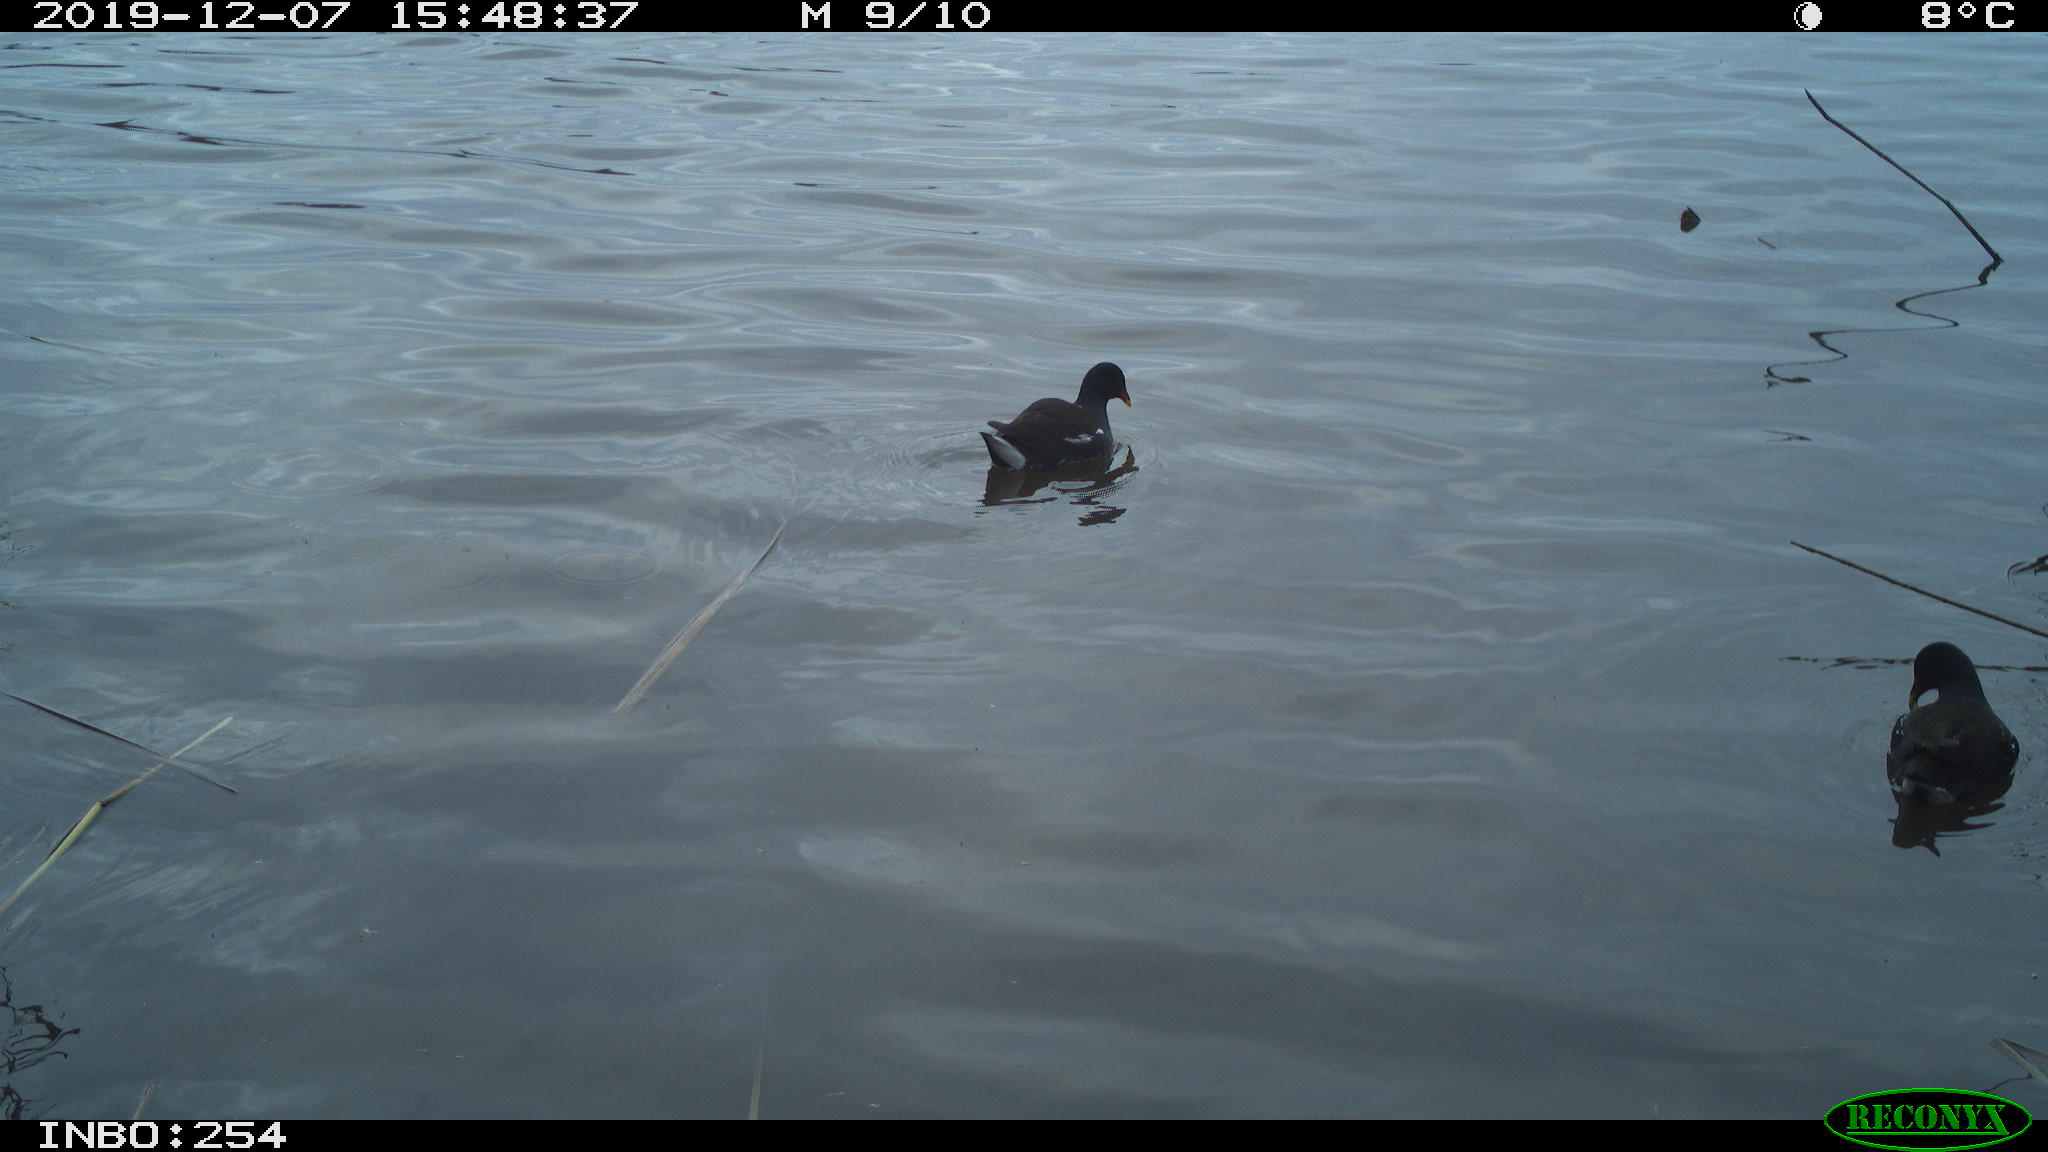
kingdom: Animalia
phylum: Chordata
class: Aves
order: Gruiformes
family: Rallidae
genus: Gallinula
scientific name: Gallinula chloropus
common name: Common moorhen
